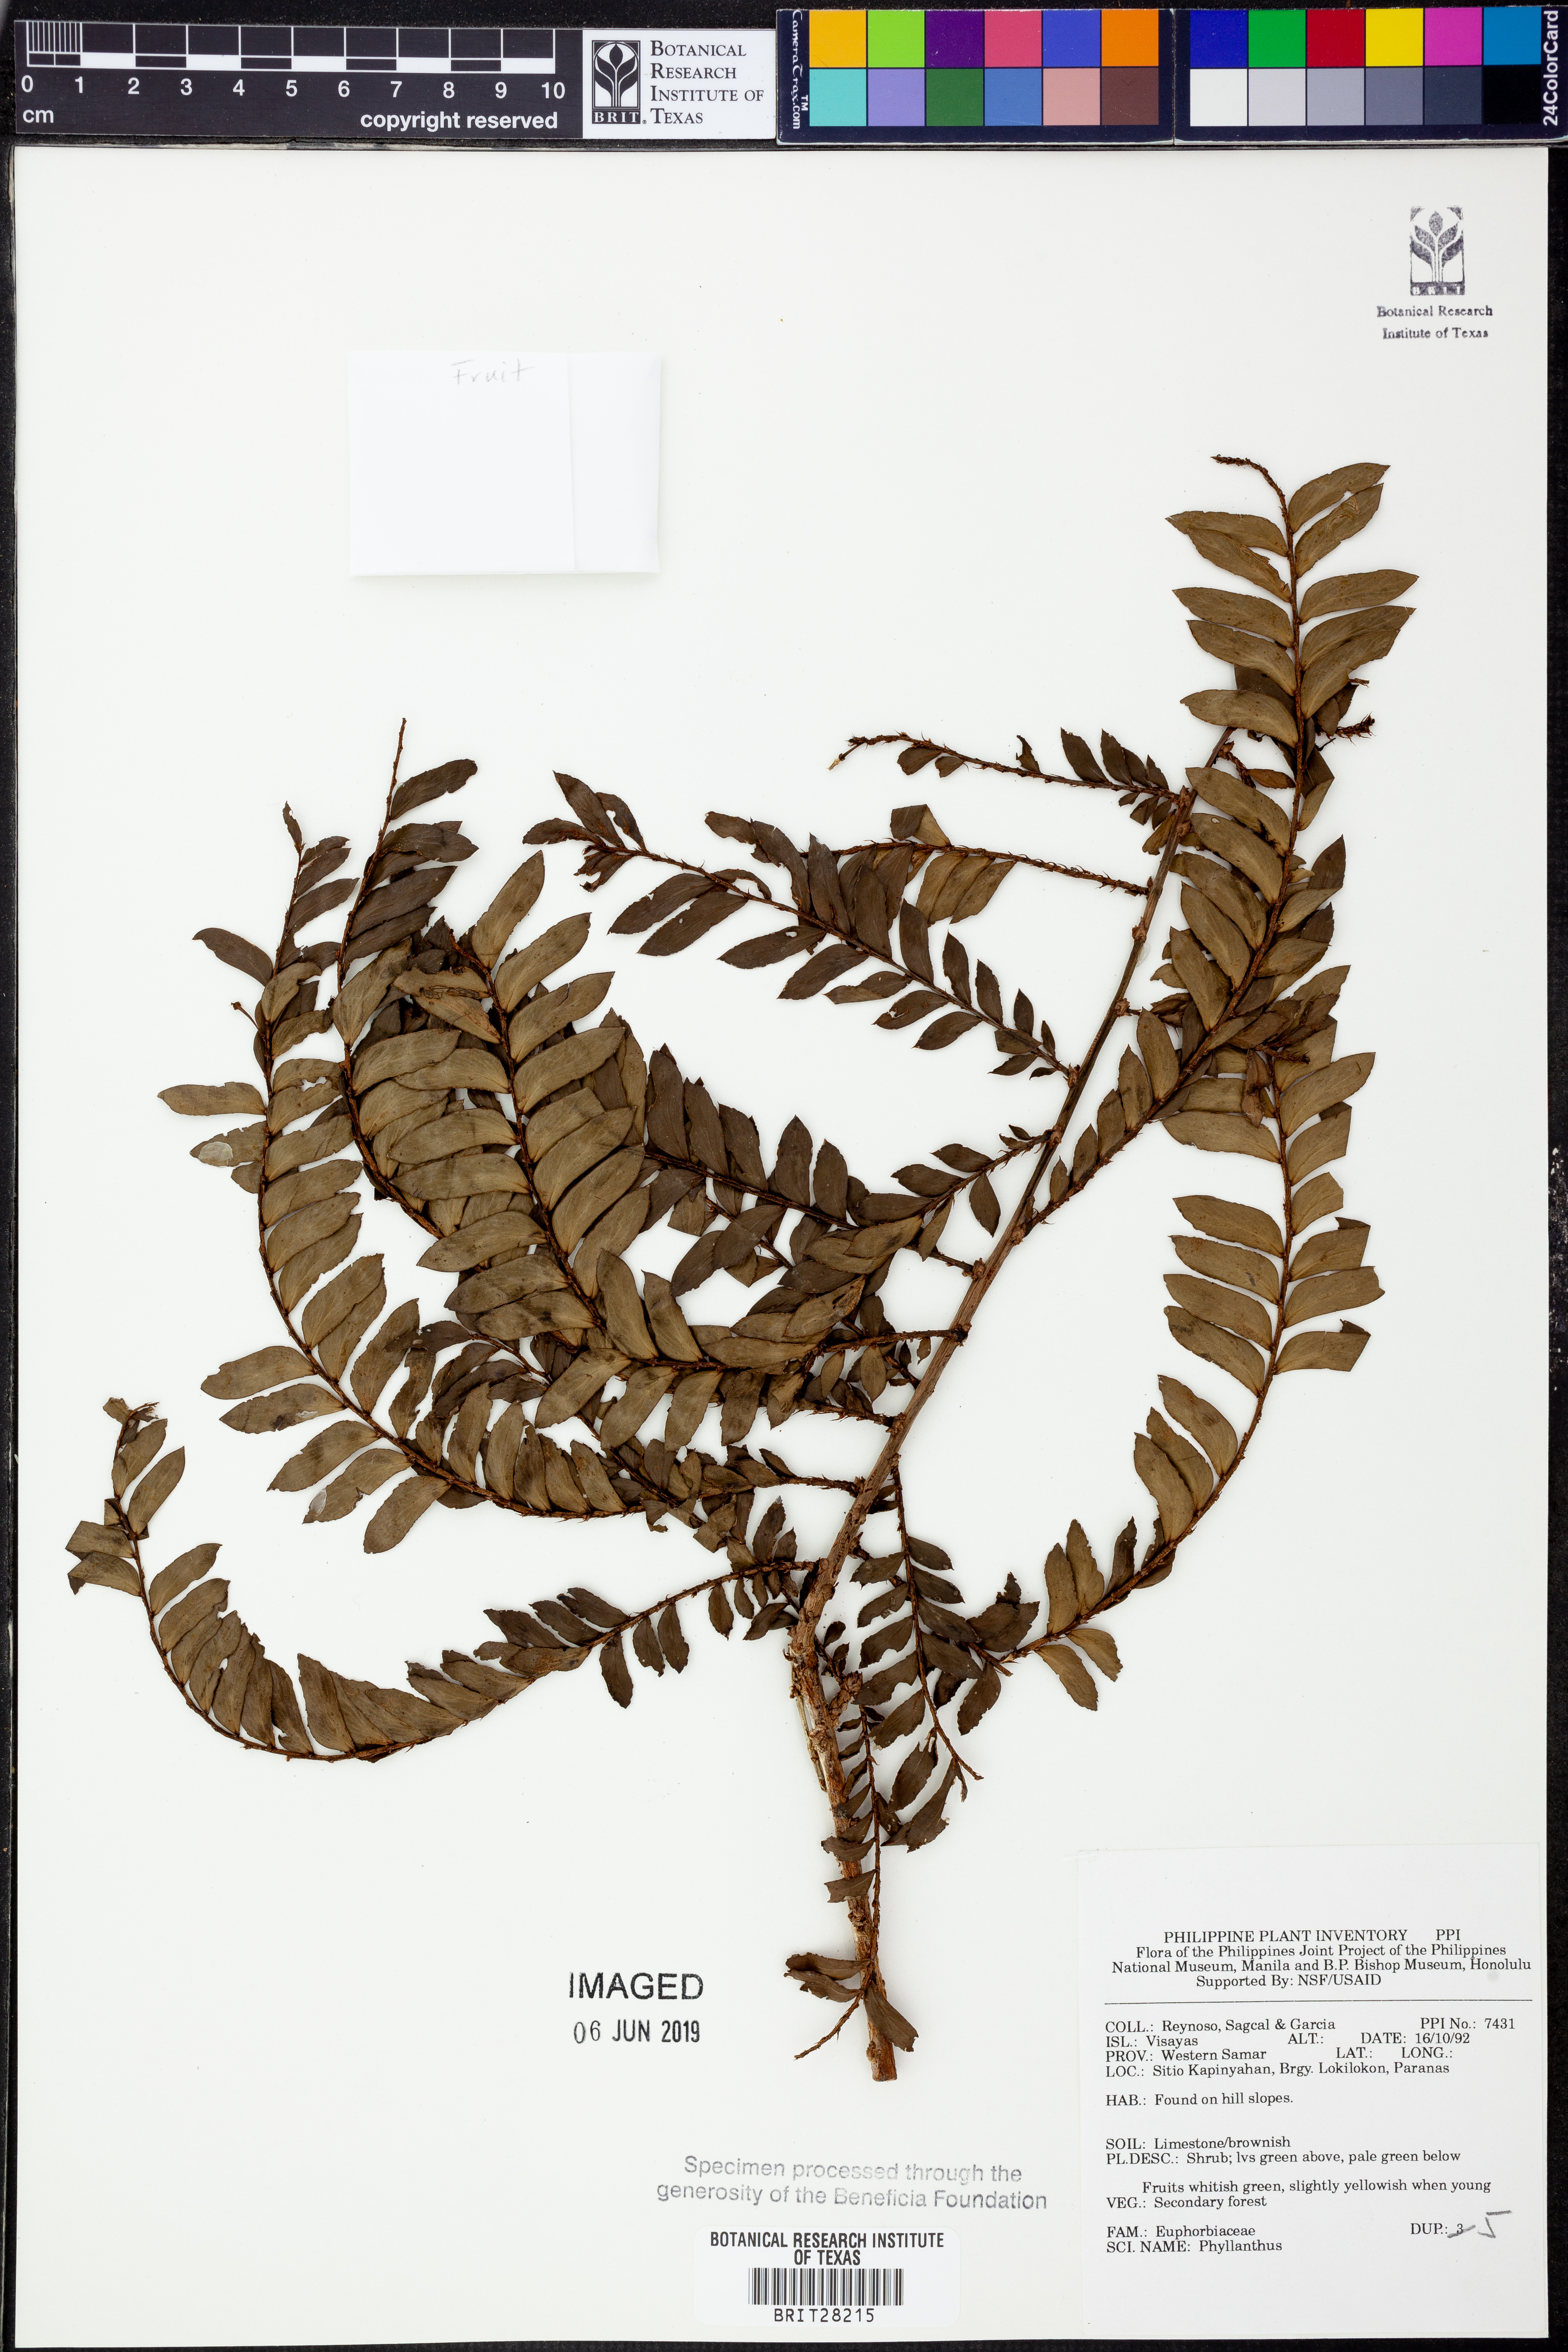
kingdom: Plantae
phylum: Tracheophyta
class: Magnoliopsida
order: Malpighiales
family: Phyllanthaceae
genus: Phyllanthus
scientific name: Phyllanthus
